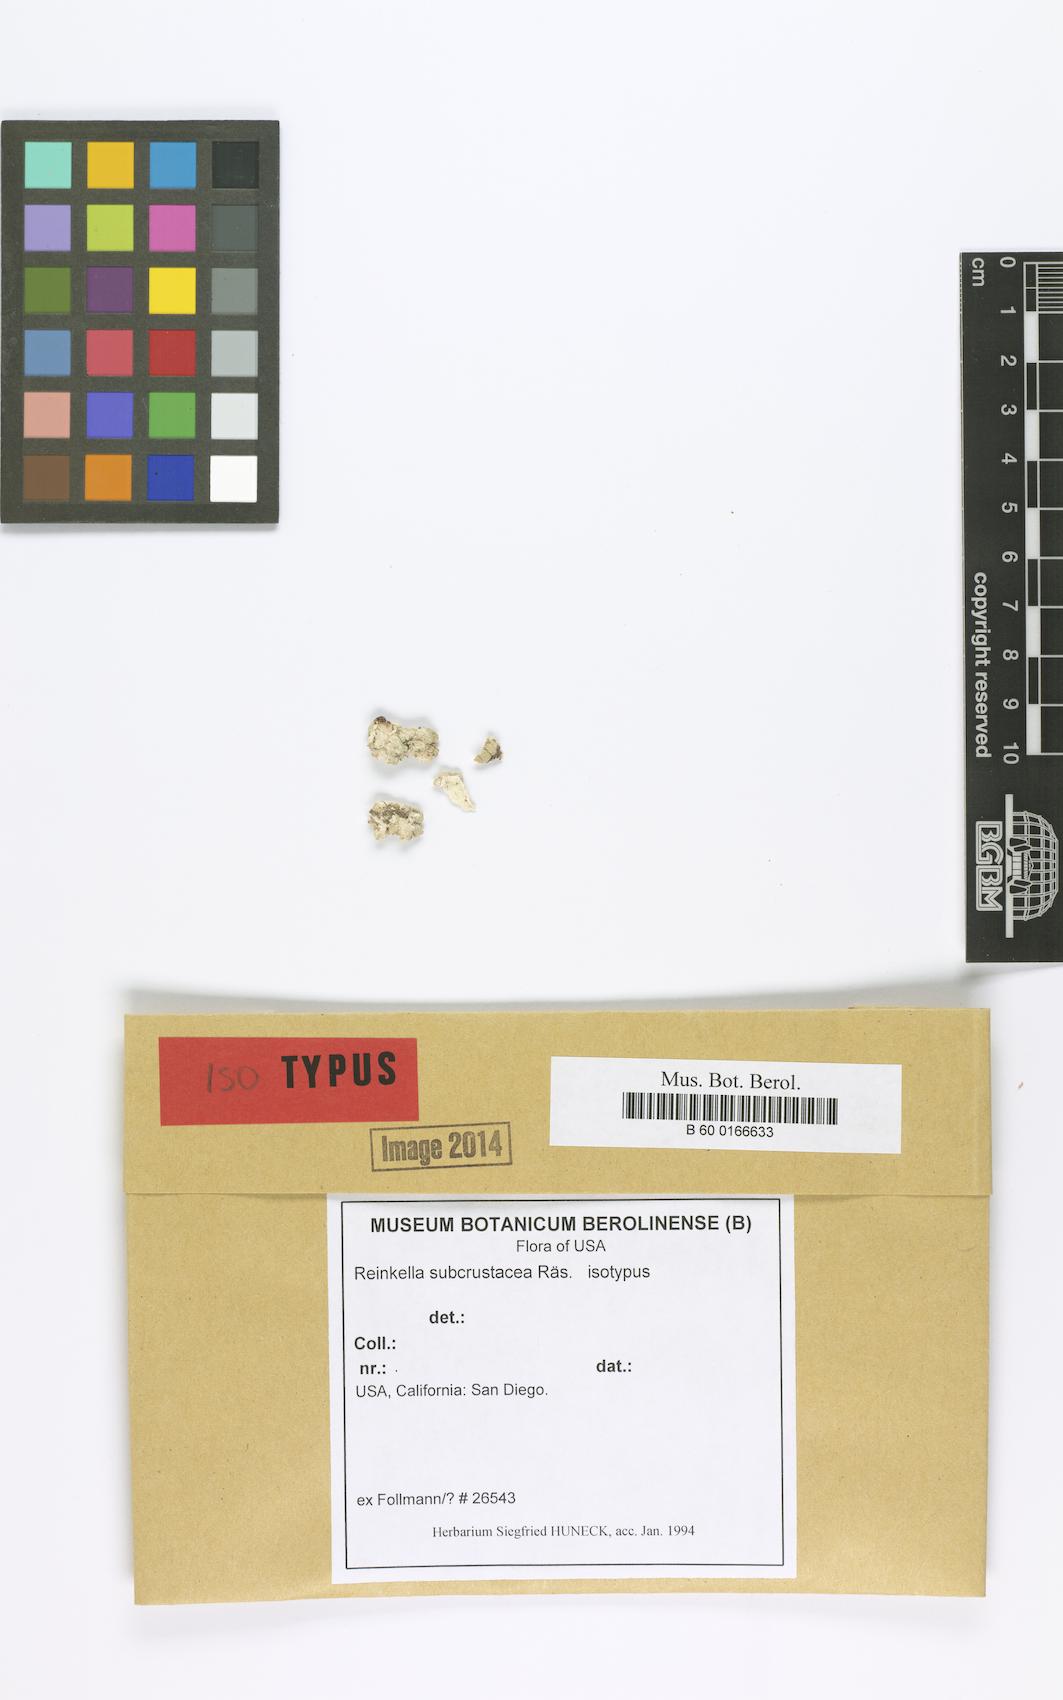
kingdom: Fungi
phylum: Ascomycota
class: Lecanoromycetes
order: Peltigerales
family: Pannariaceae
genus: Pannaria
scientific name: Pannaria subcrustacea
